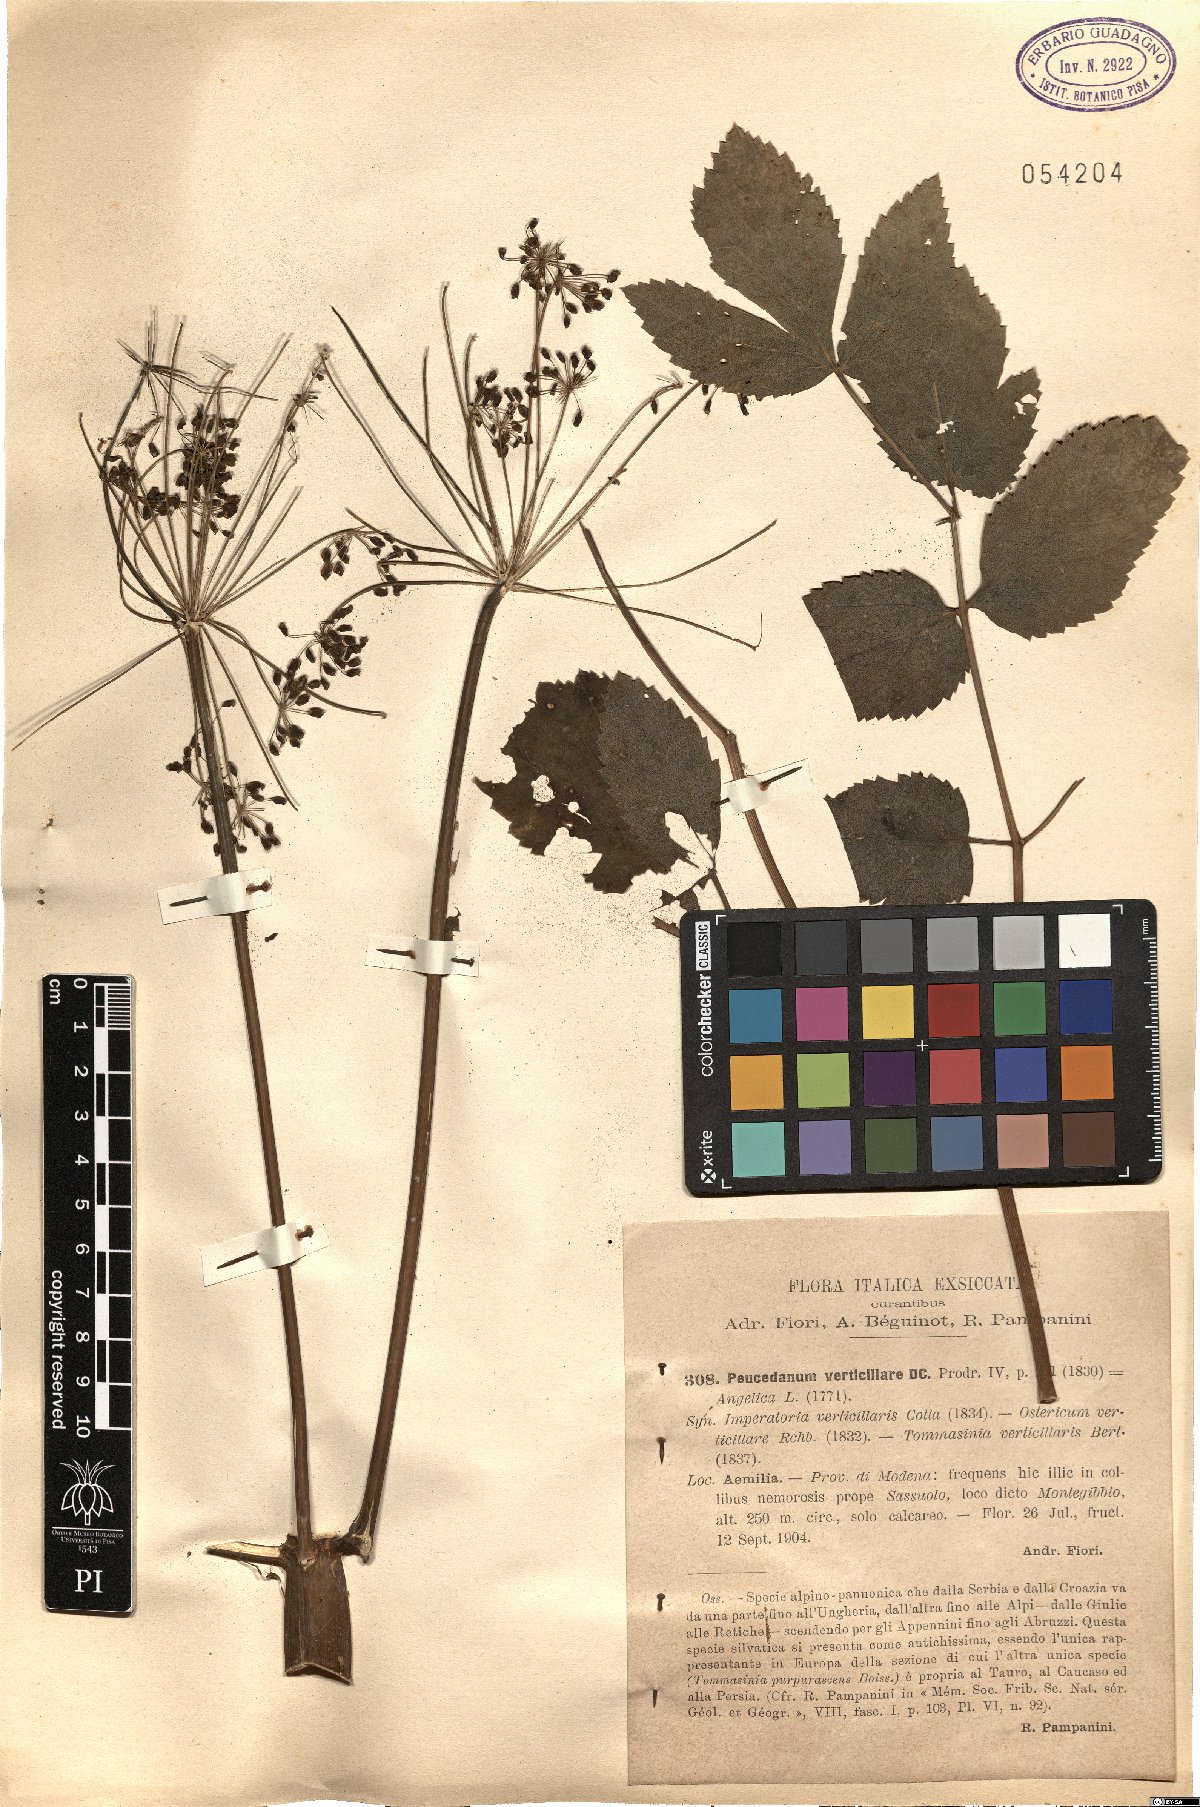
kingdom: Plantae
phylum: Tracheophyta
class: Magnoliopsida
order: Apiales
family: Apiaceae
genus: Tommasinia
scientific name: Tommasinia altissima
